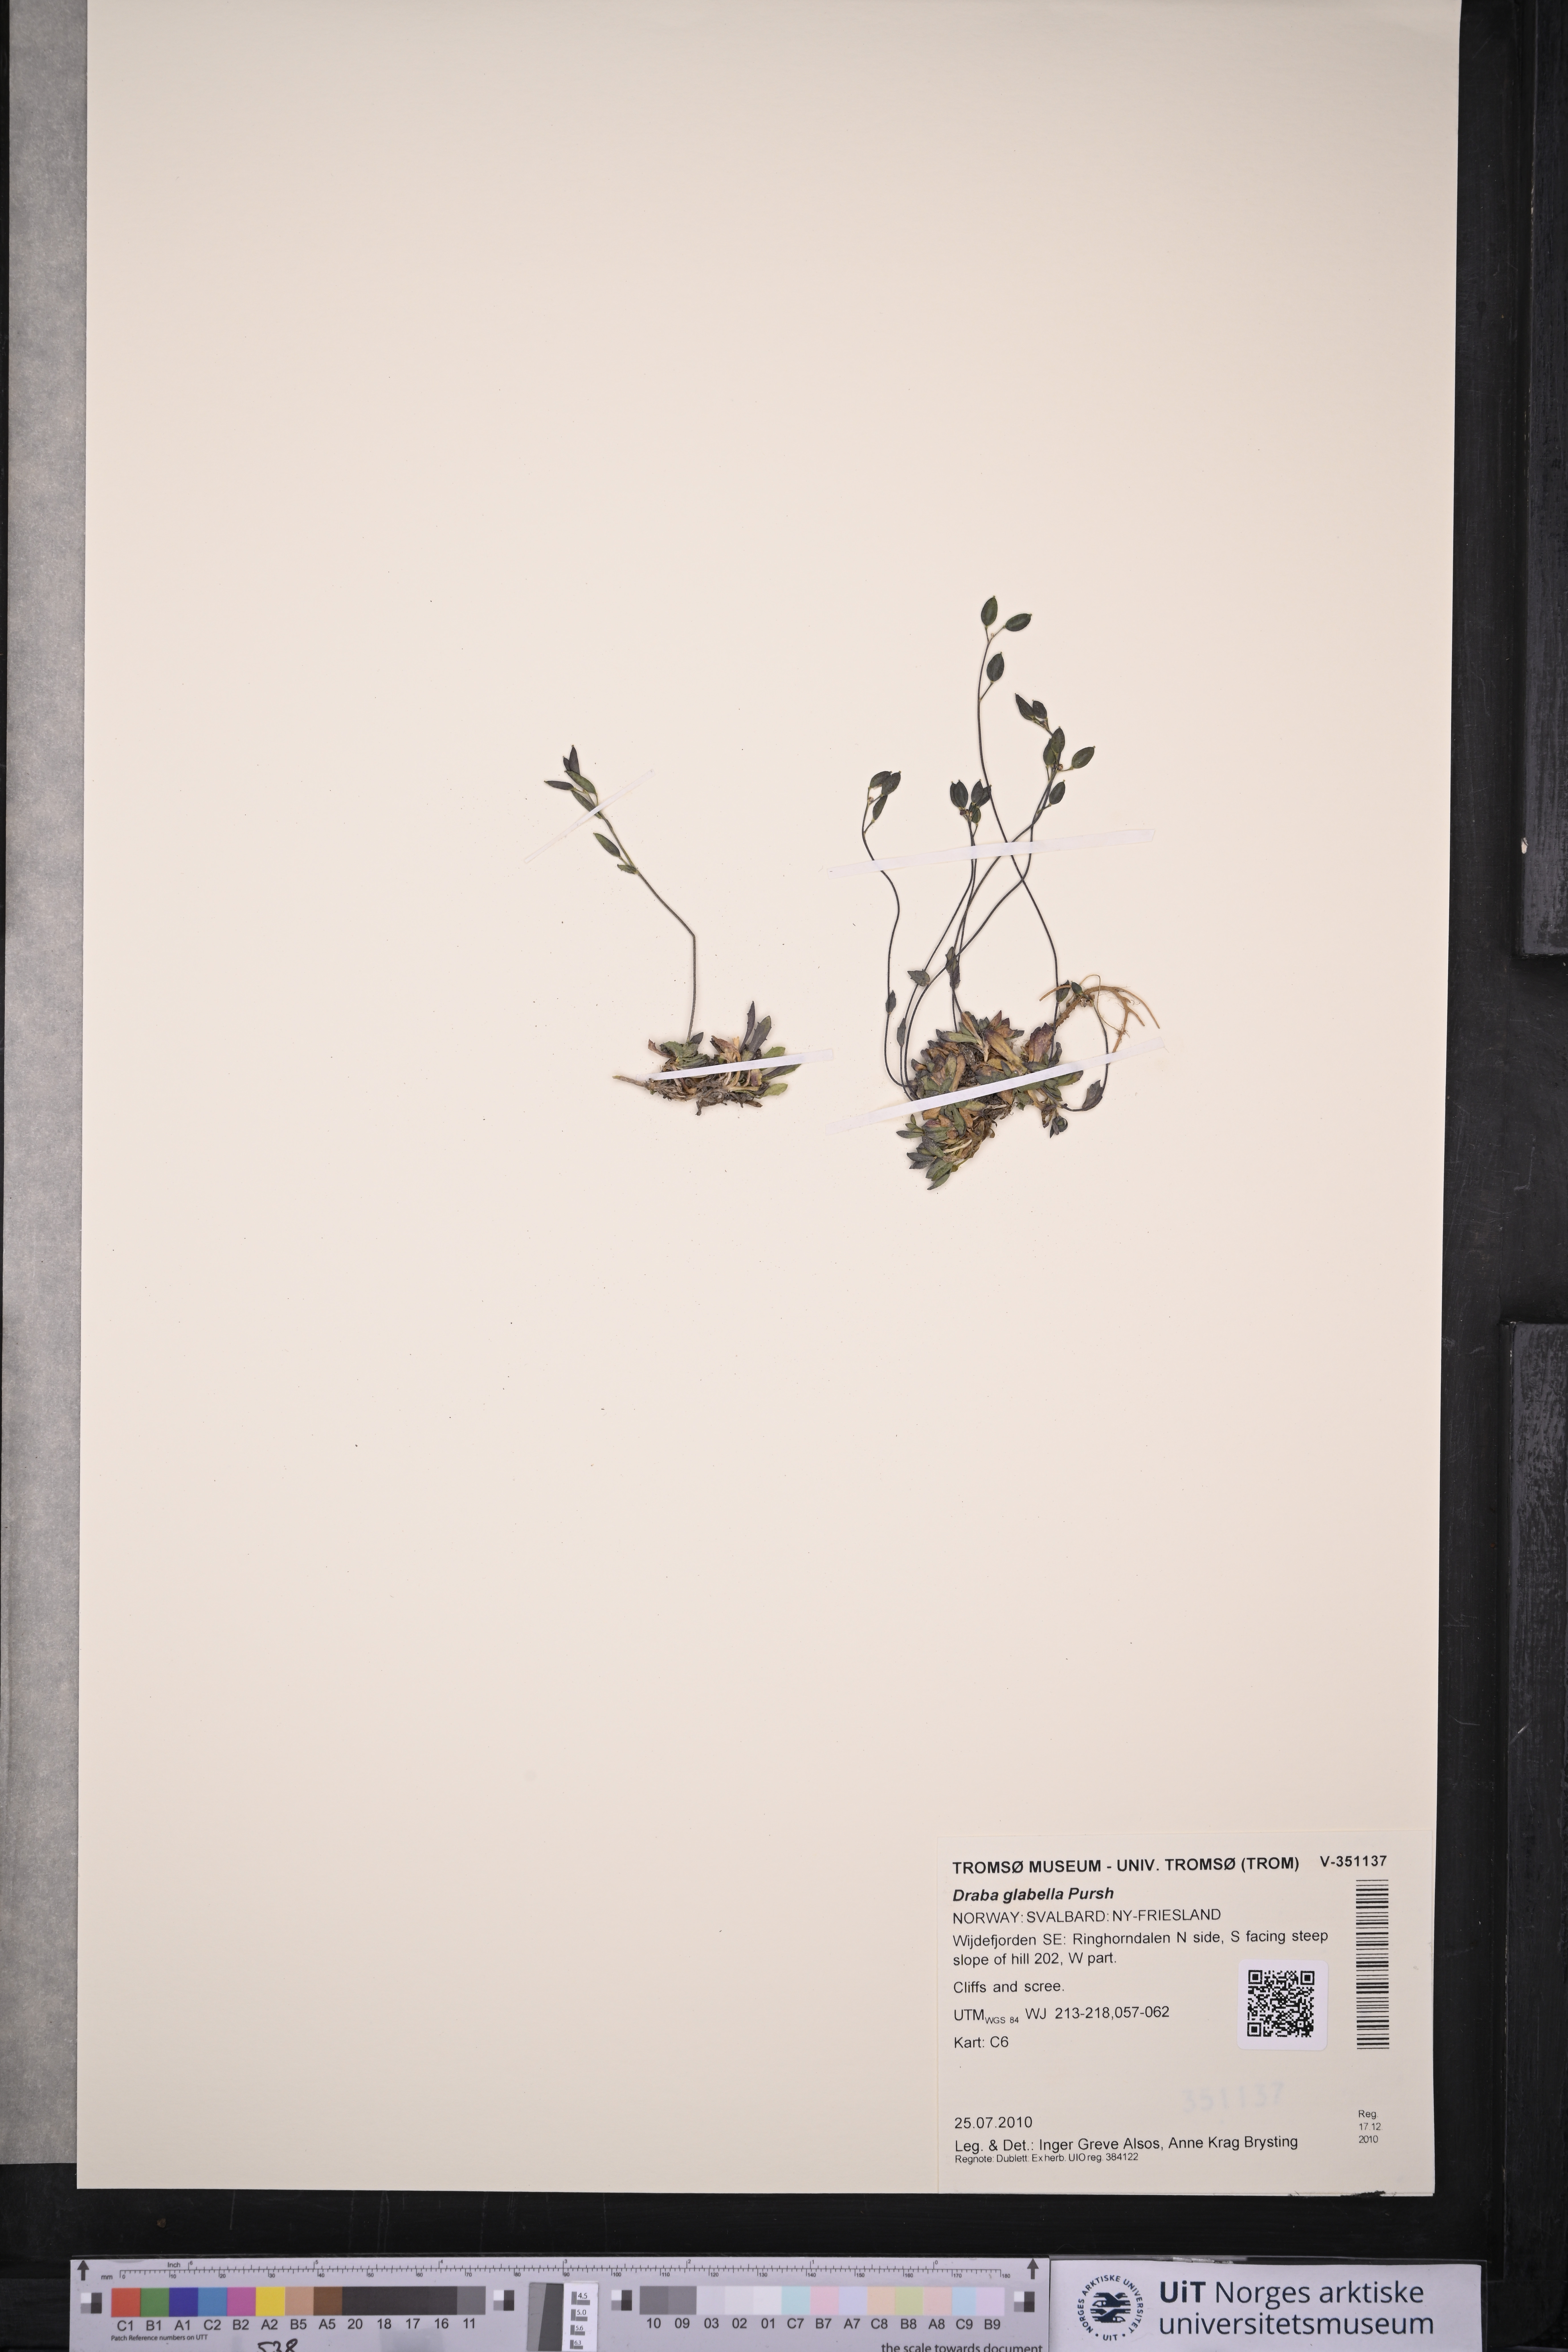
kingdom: Plantae
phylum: Tracheophyta
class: Magnoliopsida
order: Brassicales
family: Brassicaceae
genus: Draba
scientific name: Draba glabella
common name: Glaucous draba
